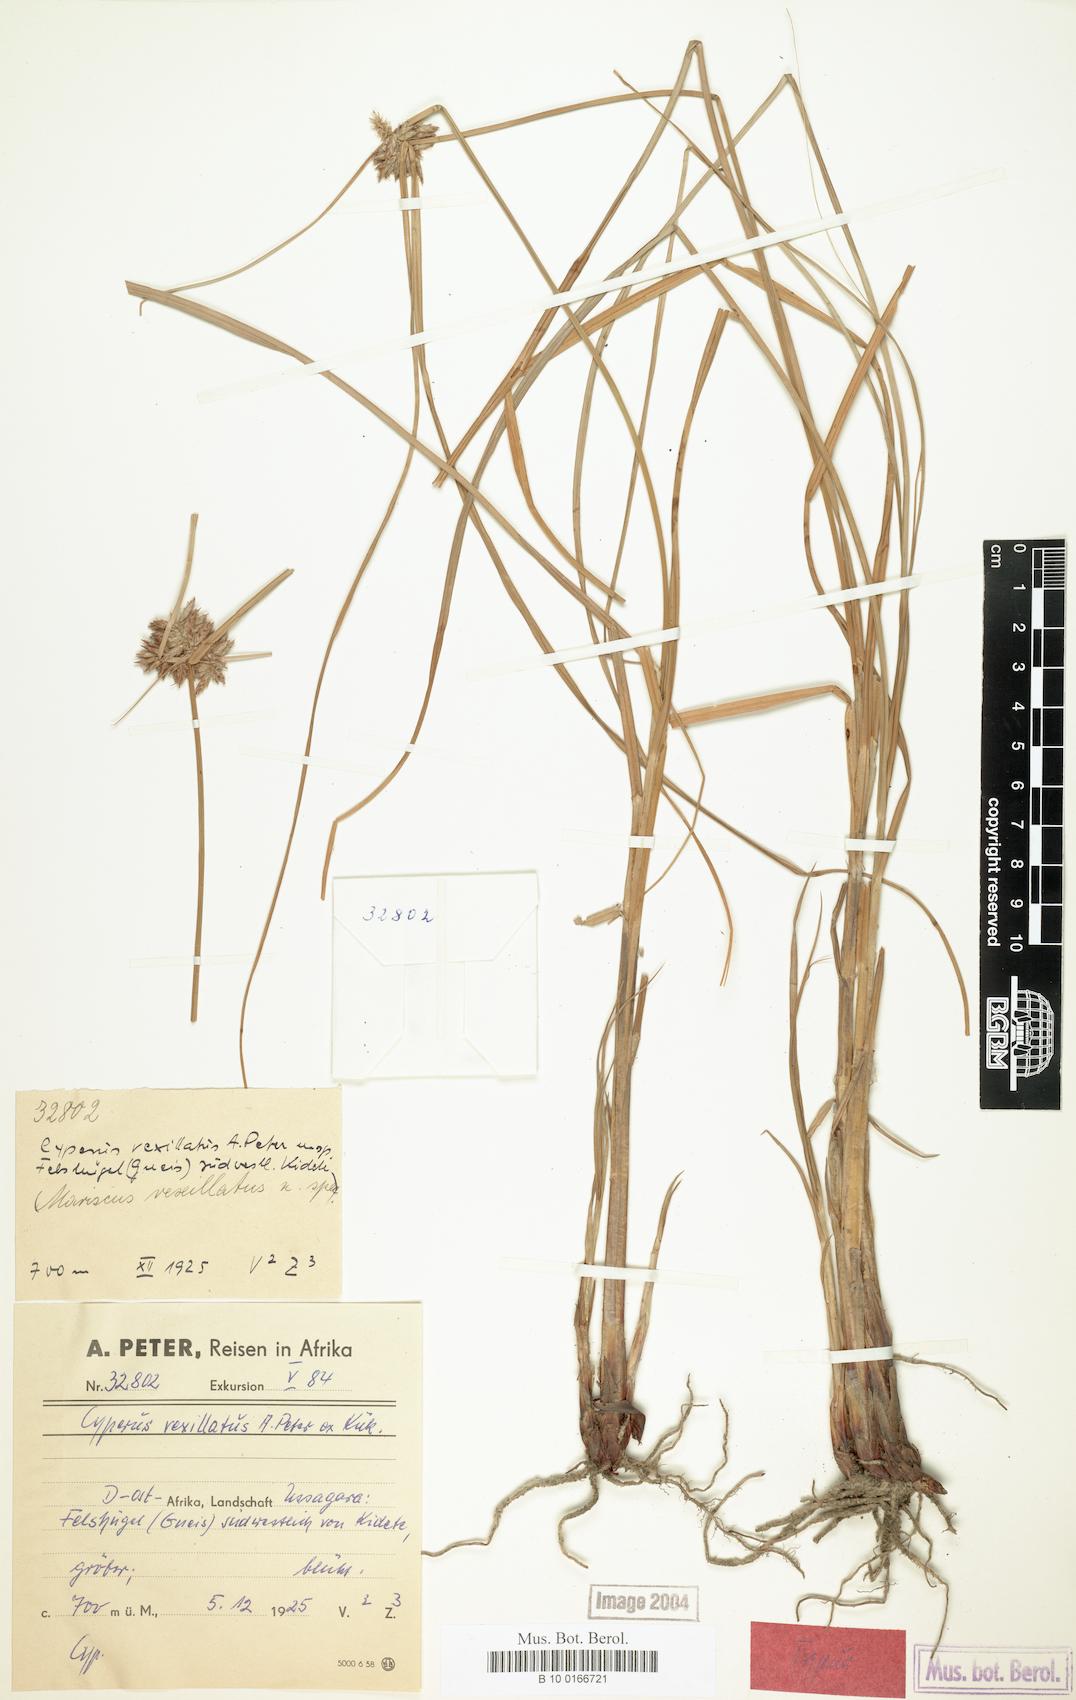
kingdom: Plantae
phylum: Tracheophyta
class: Liliopsida
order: Poales
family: Cyperaceae
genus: Cyperus
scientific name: Cyperus cruentus
